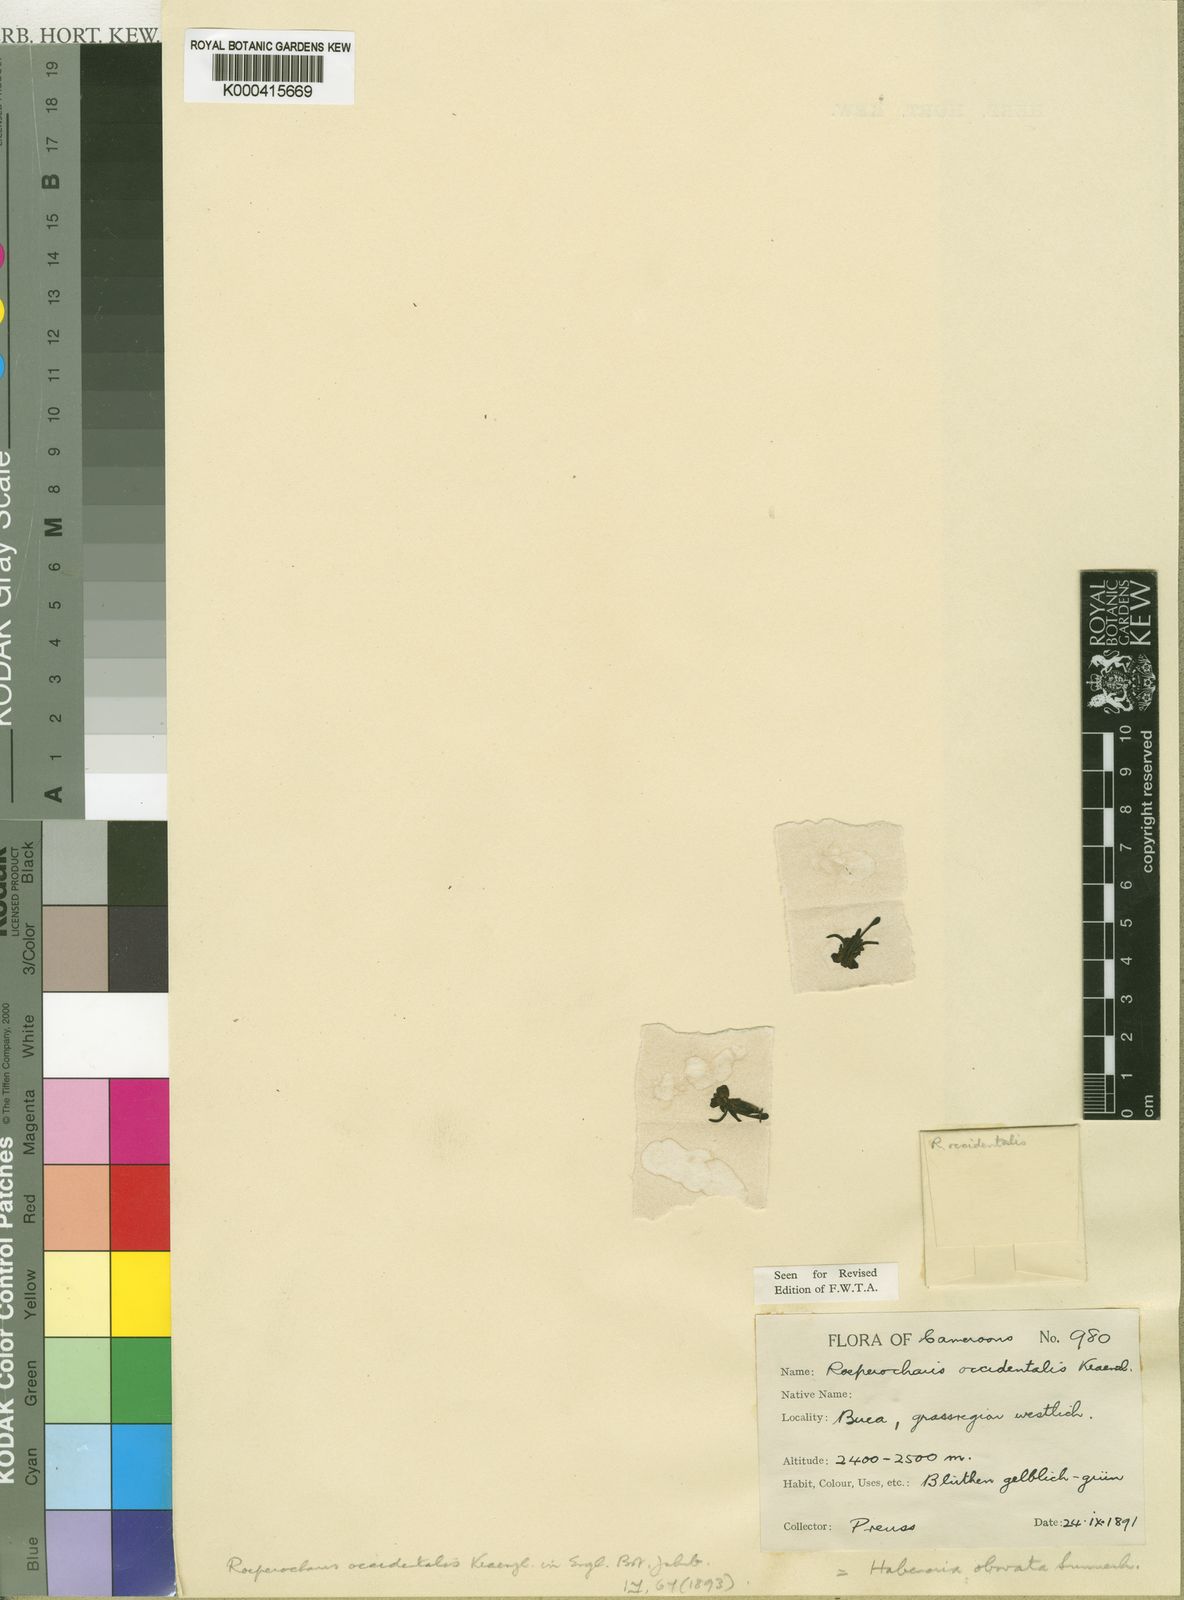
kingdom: Plantae
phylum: Tracheophyta
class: Liliopsida
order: Asparagales
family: Orchidaceae
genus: Habenaria
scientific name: Habenaria obovata
